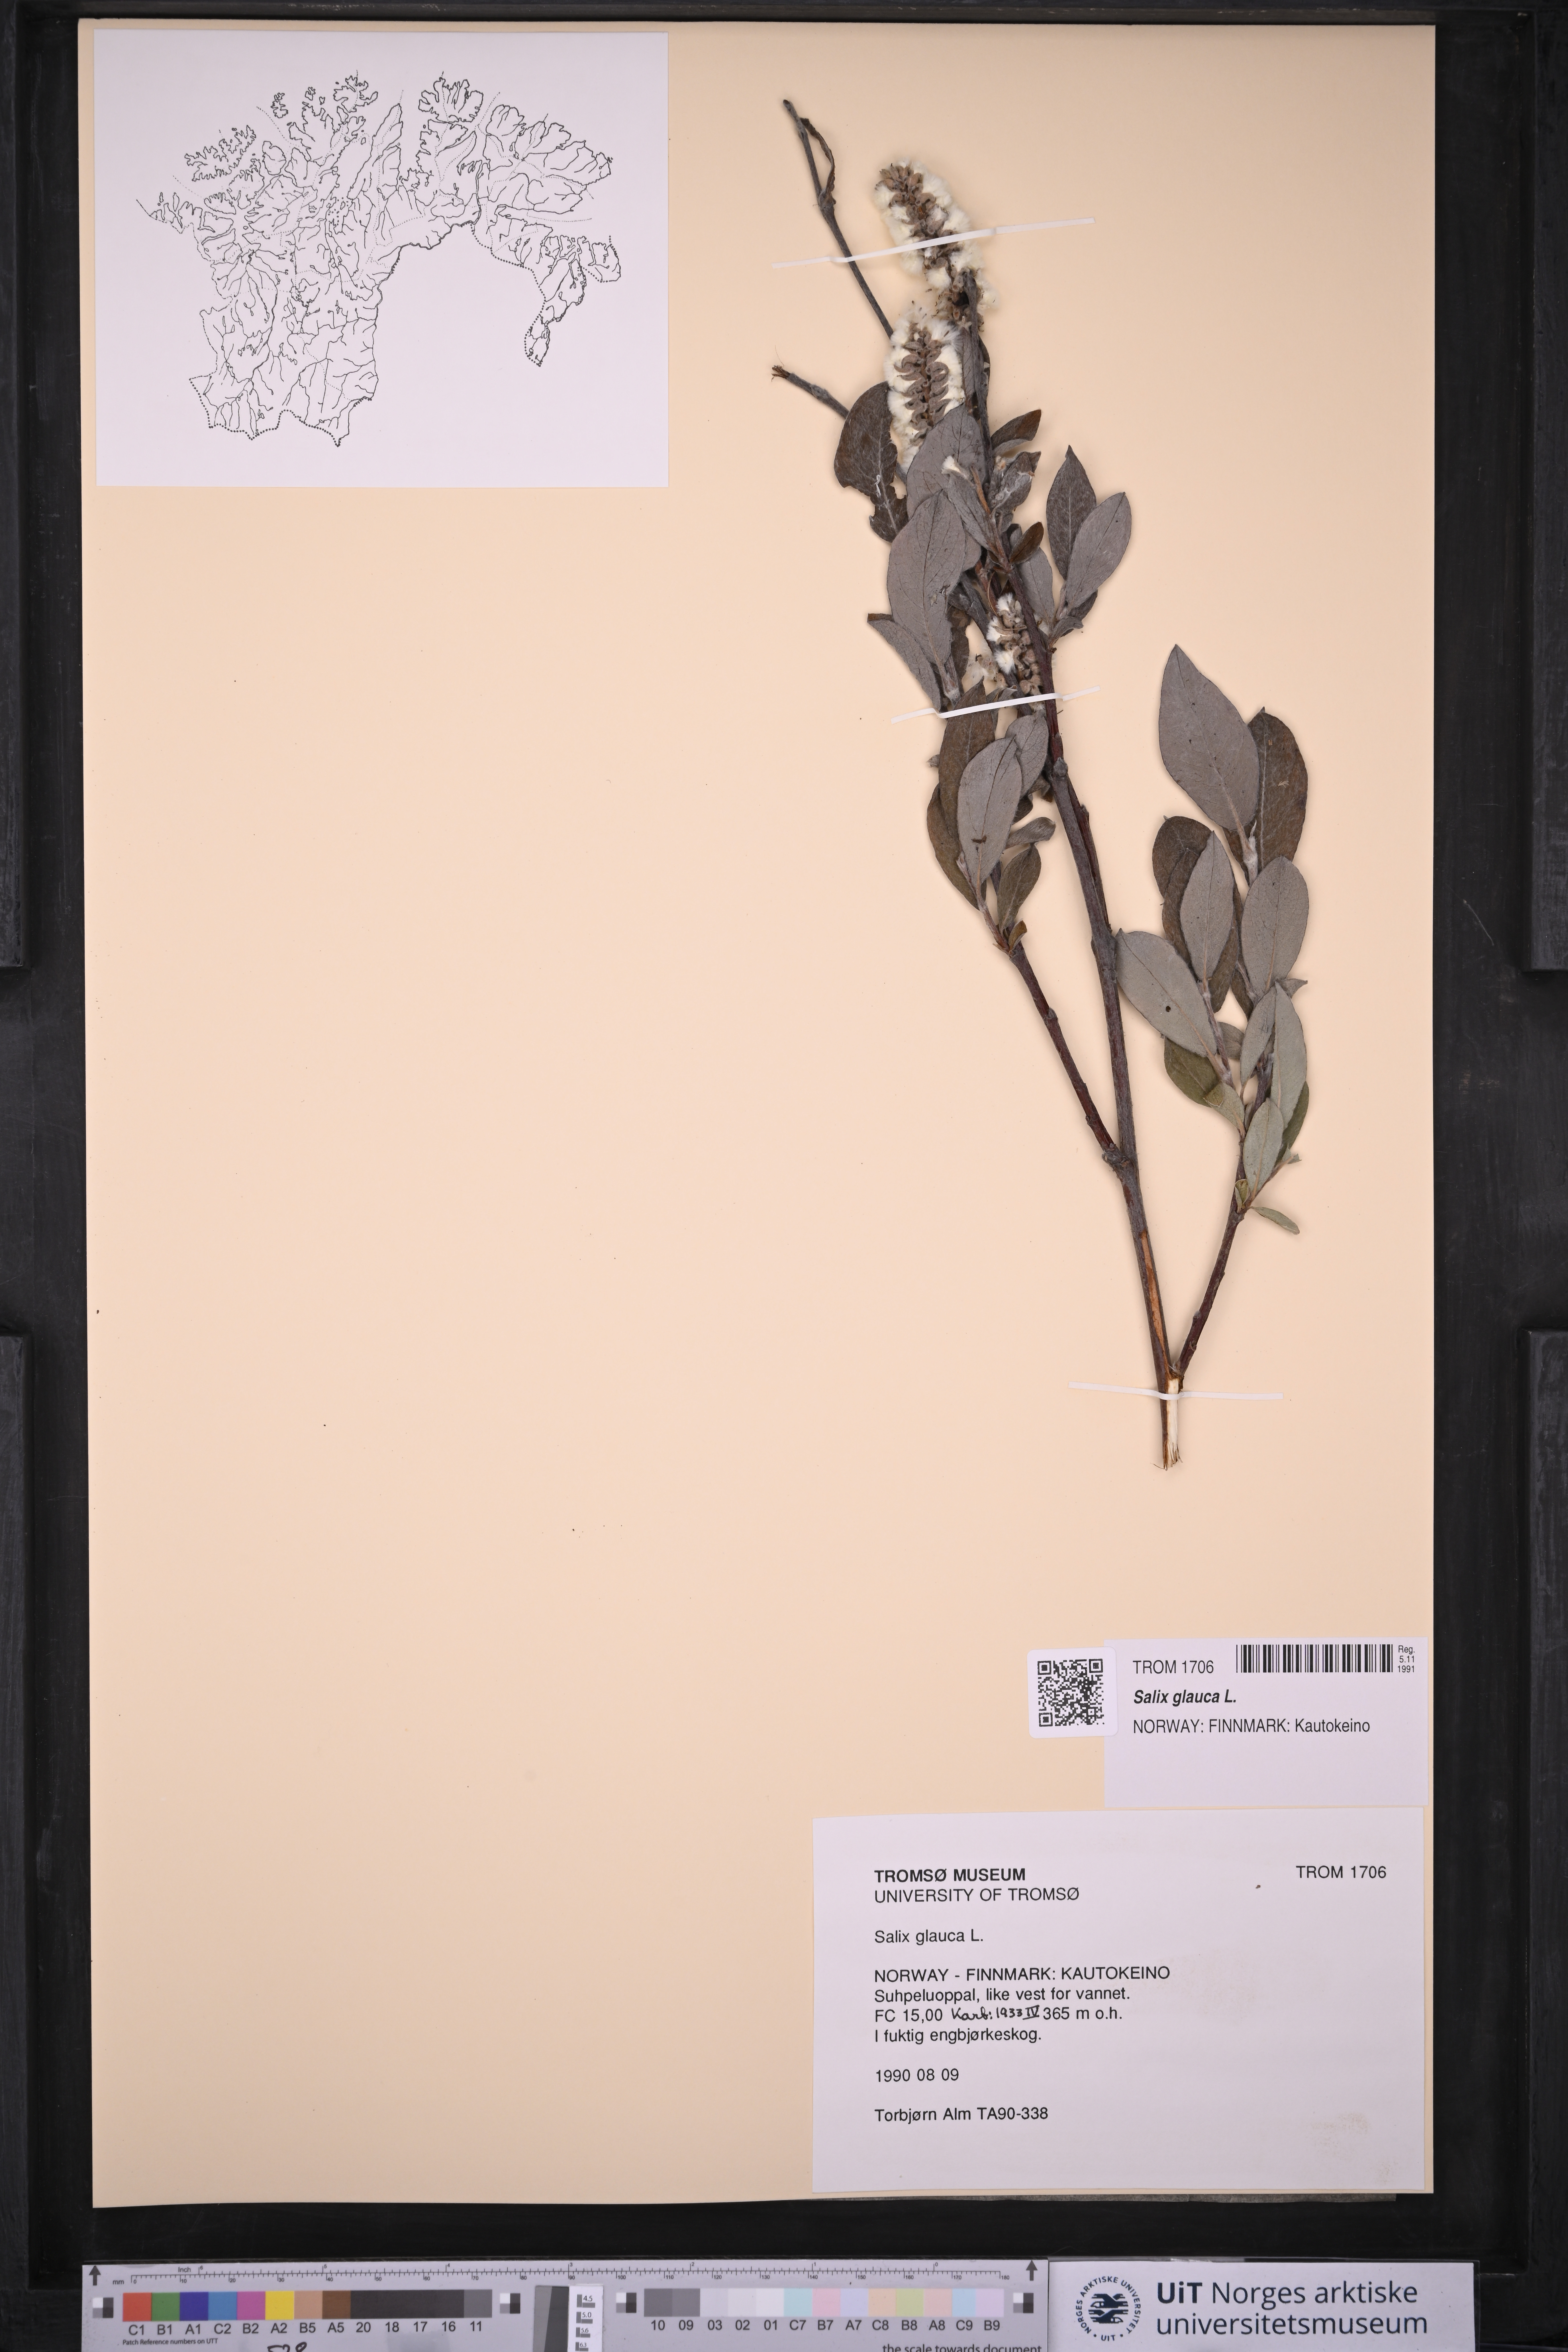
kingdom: Plantae
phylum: Tracheophyta
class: Magnoliopsida
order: Malpighiales
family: Salicaceae
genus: Salix
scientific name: Salix glauca
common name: Glaucous willow
